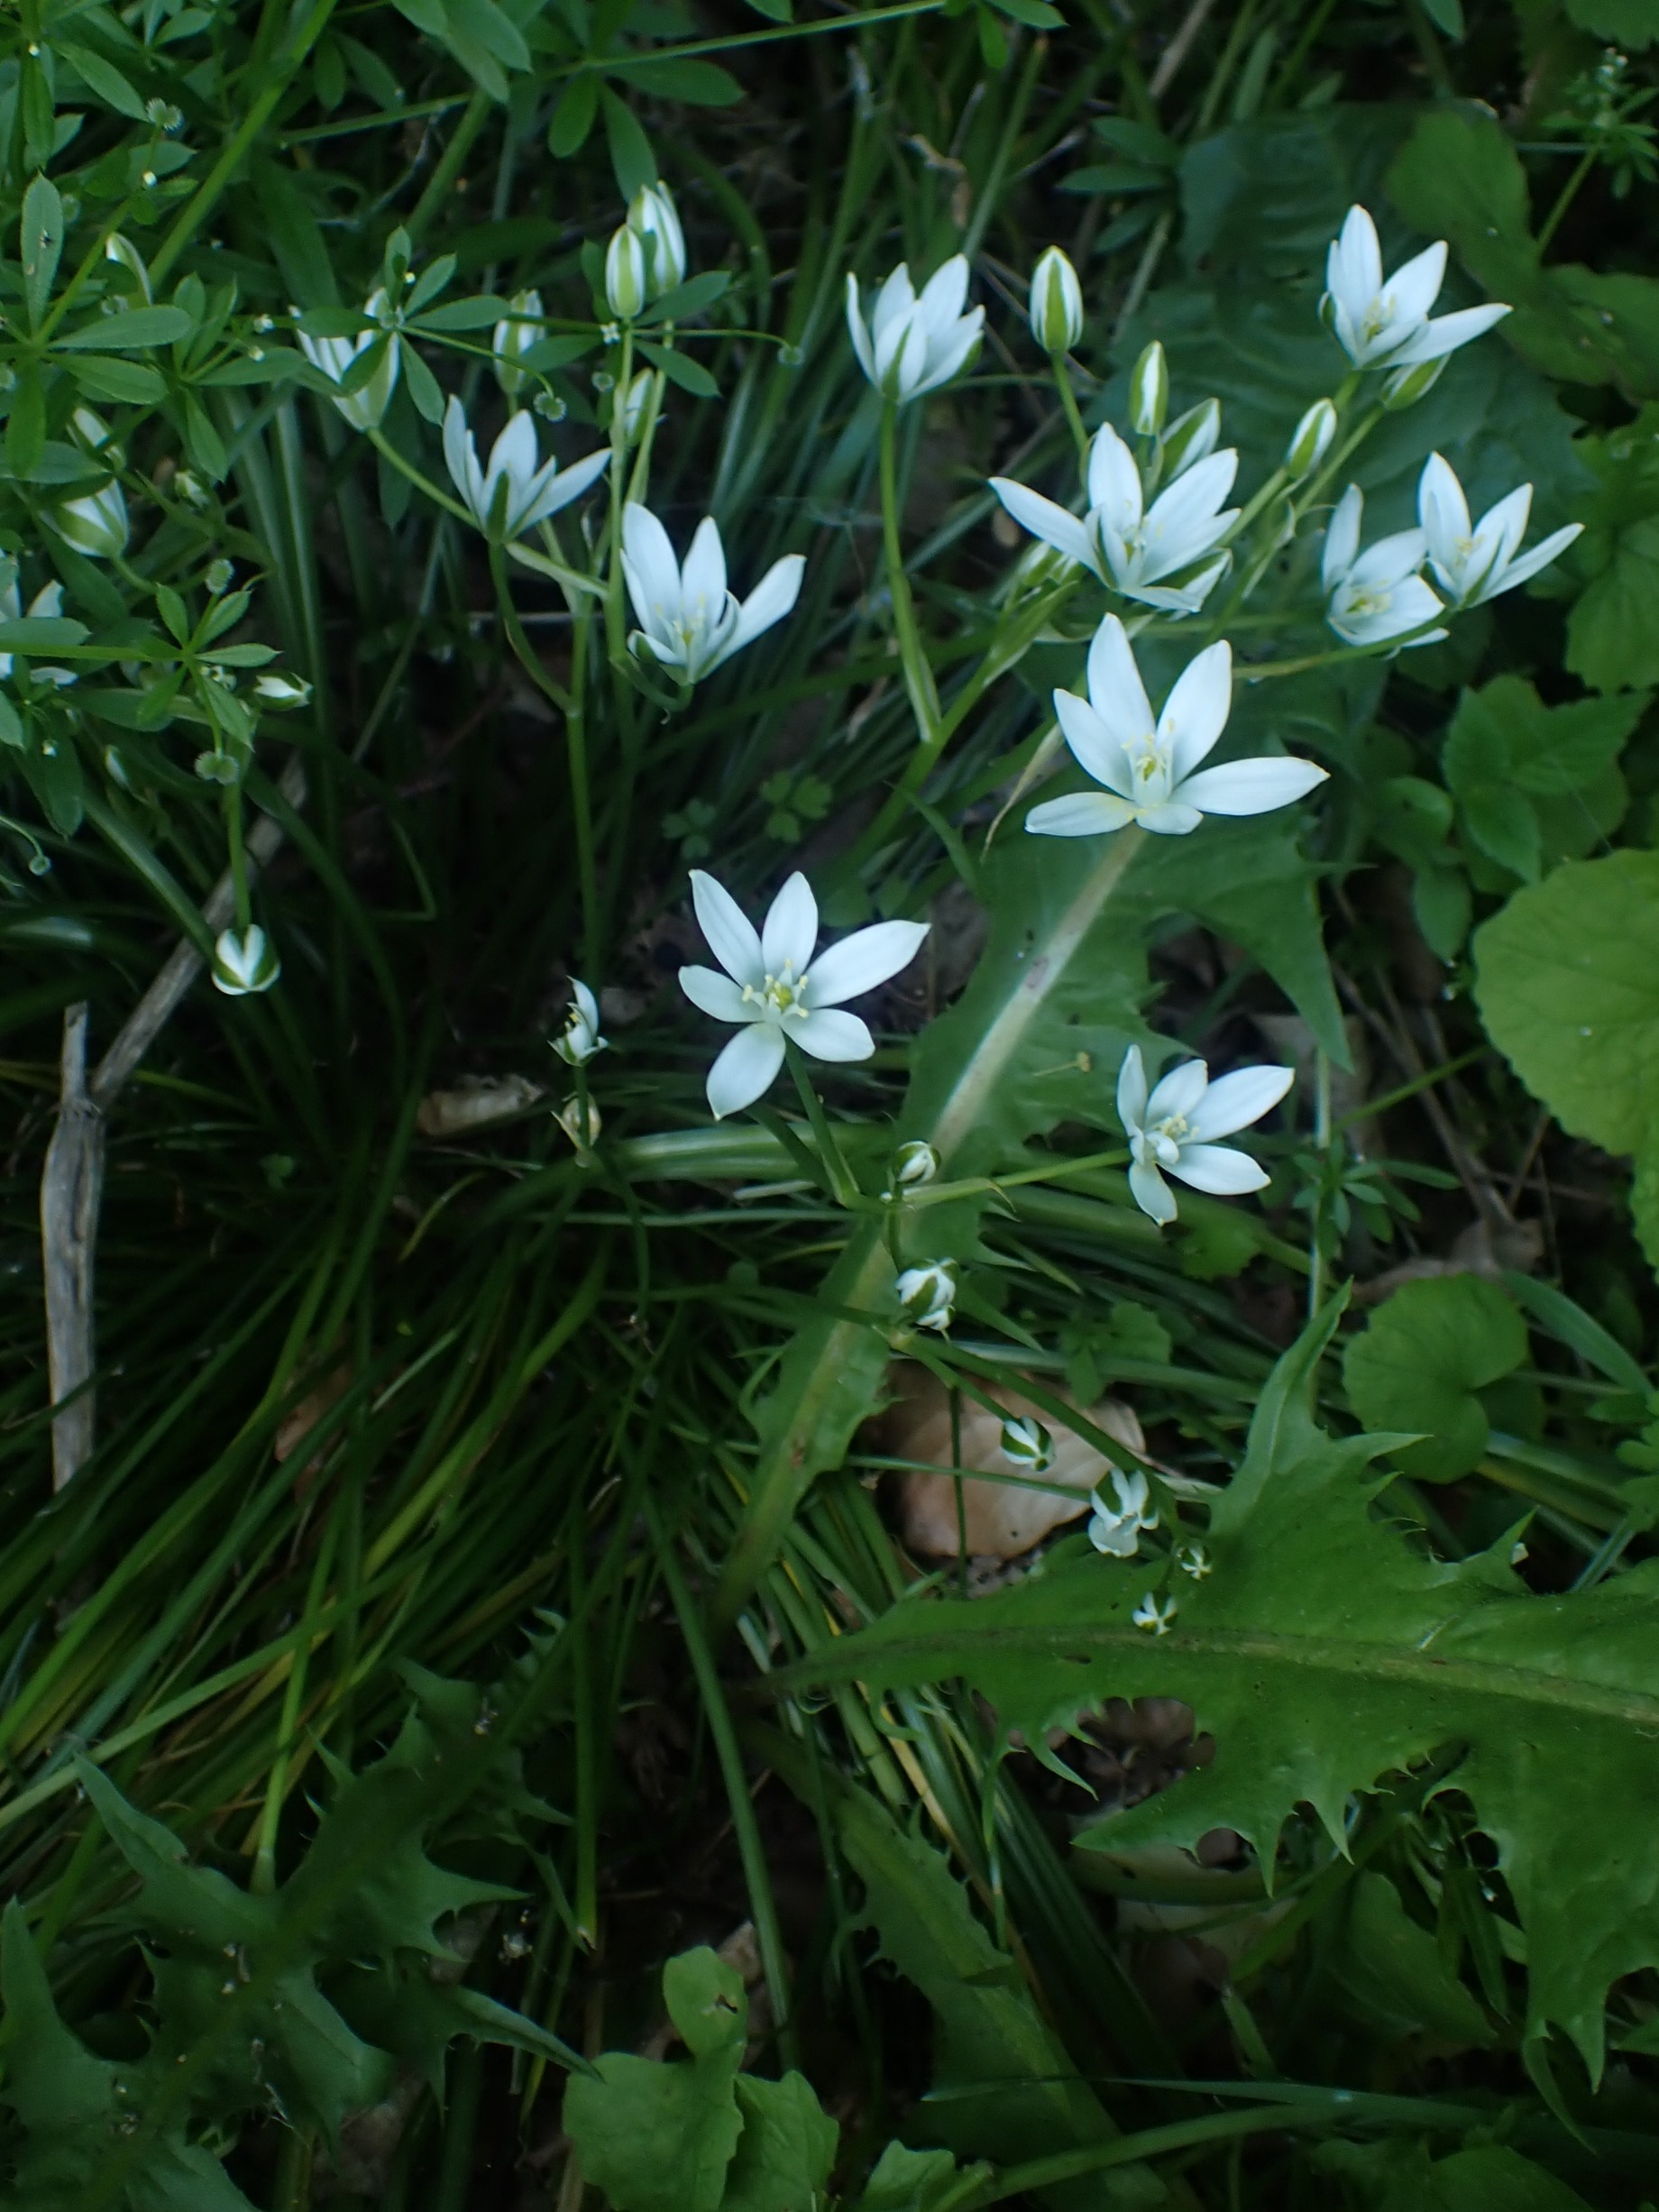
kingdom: Plantae
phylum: Tracheophyta
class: Liliopsida
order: Asparagales
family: Asparagaceae
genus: Ornithogalum
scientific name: Ornithogalum umbellatum
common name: Kost-fuglemælk
